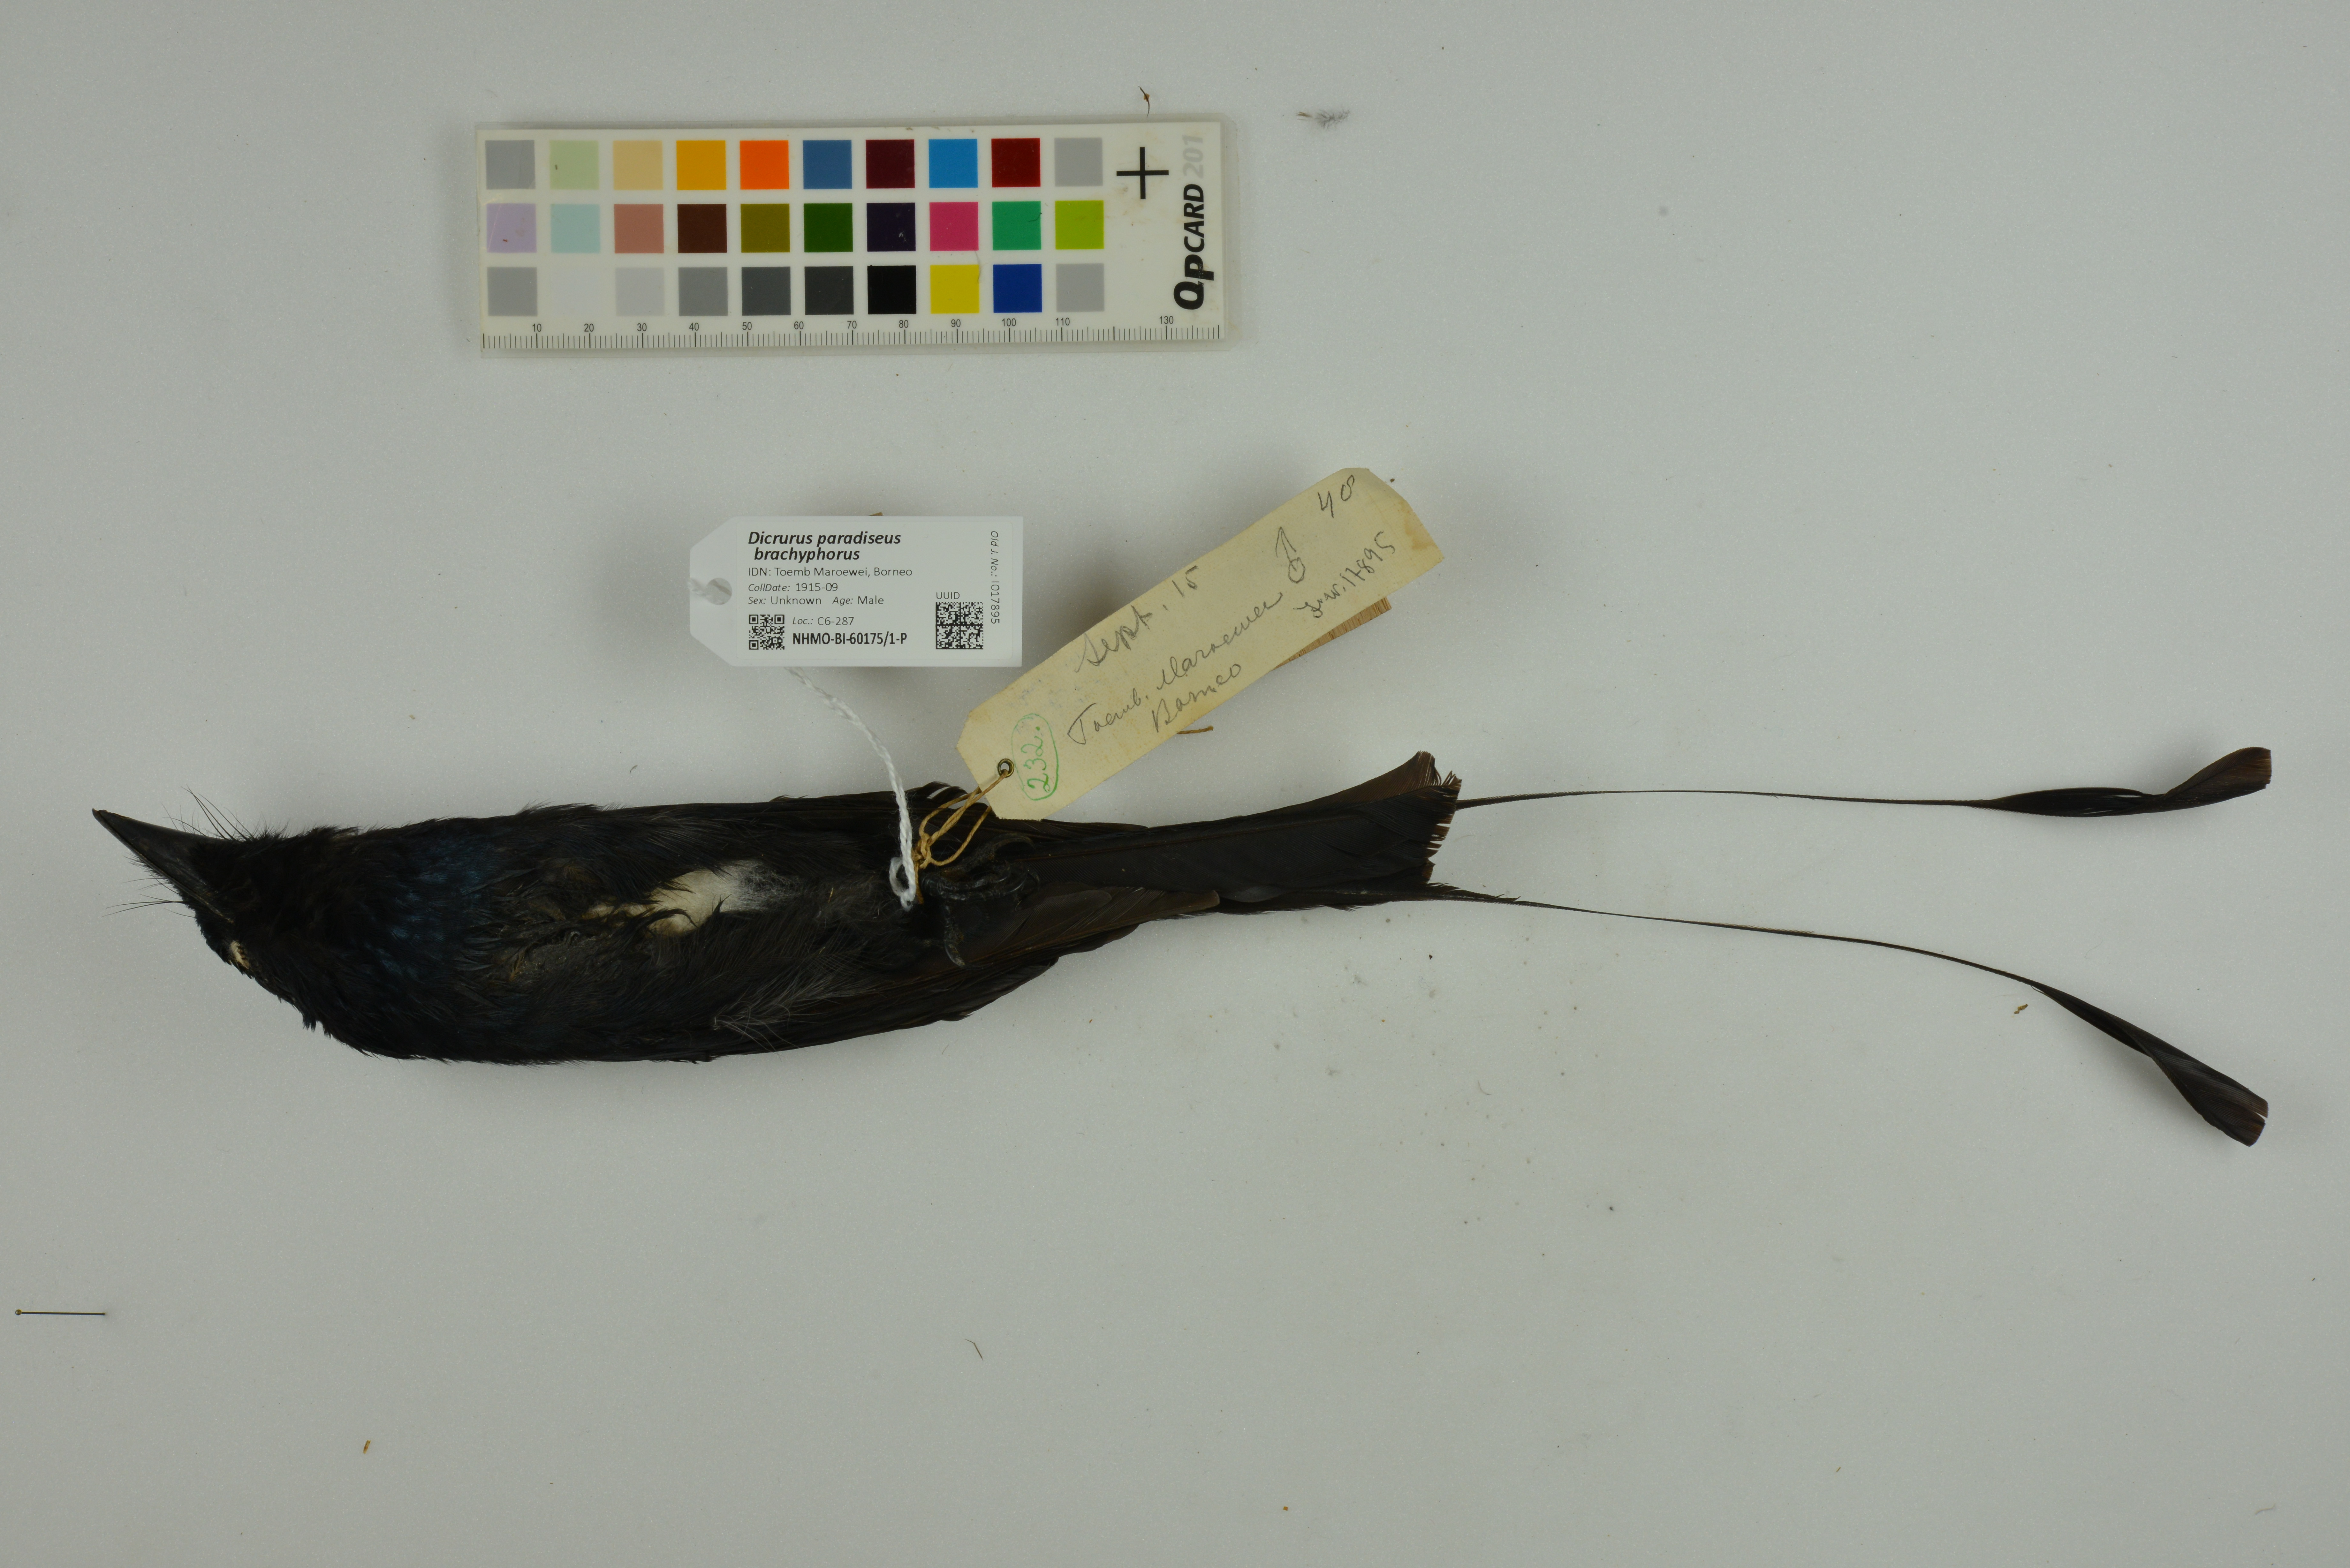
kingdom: Animalia
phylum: Chordata
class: Aves
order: Passeriformes
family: Dicruridae
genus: Dicrurus
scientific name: Dicrurus paradiseus
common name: Greater racket-tailed drongo
